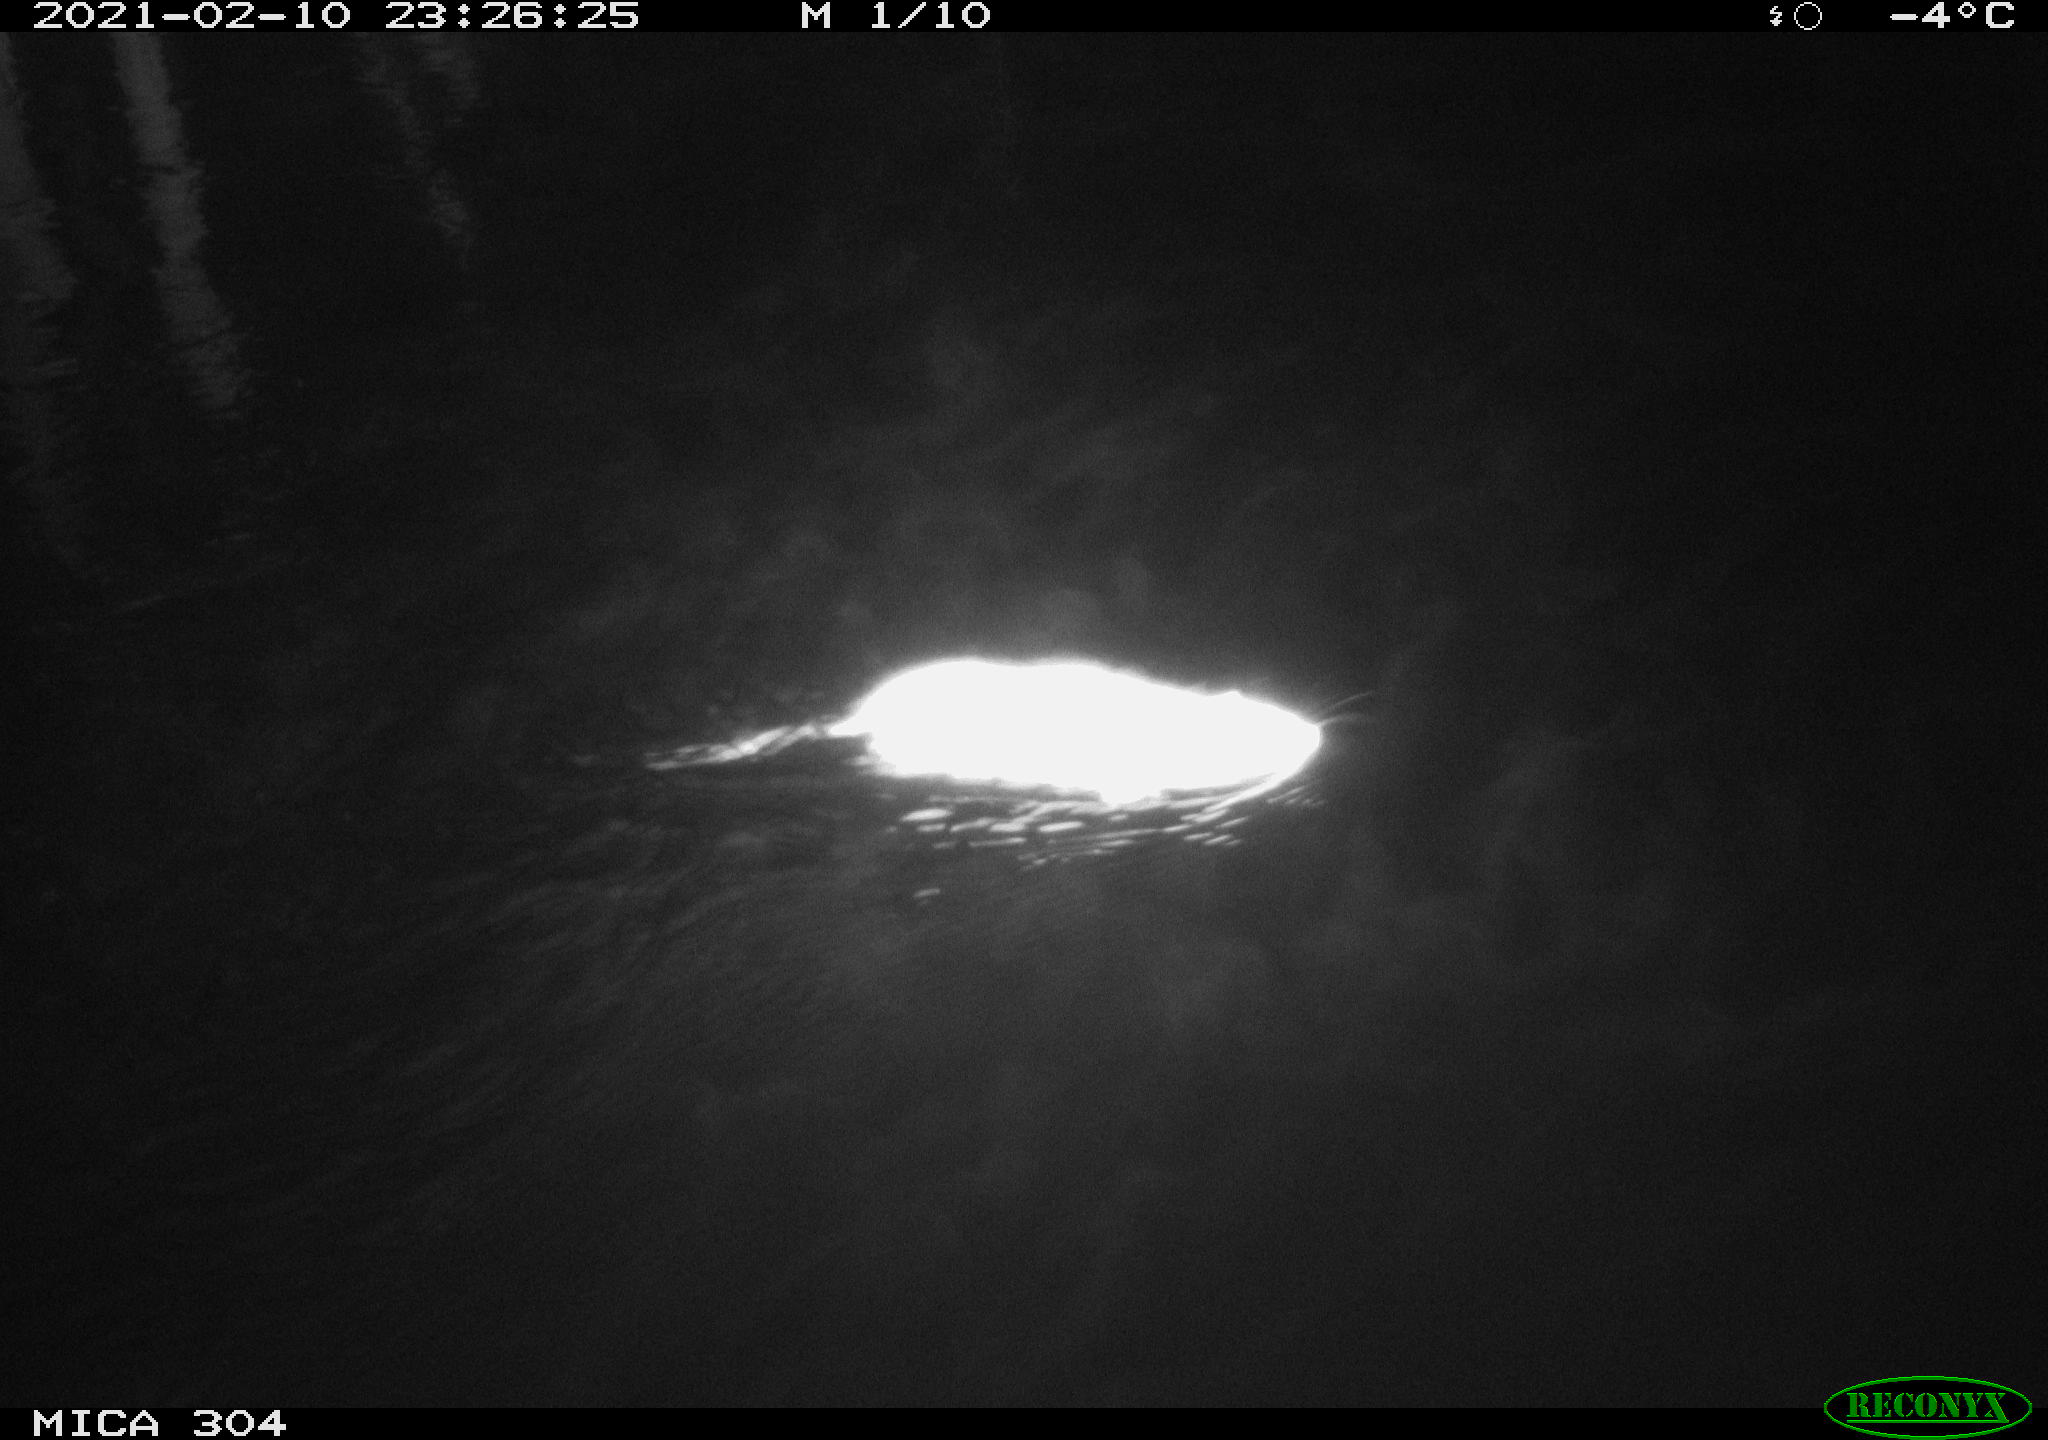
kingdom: Animalia
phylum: Chordata
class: Mammalia
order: Rodentia
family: Muridae
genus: Rattus
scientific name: Rattus norvegicus
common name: Brown rat
